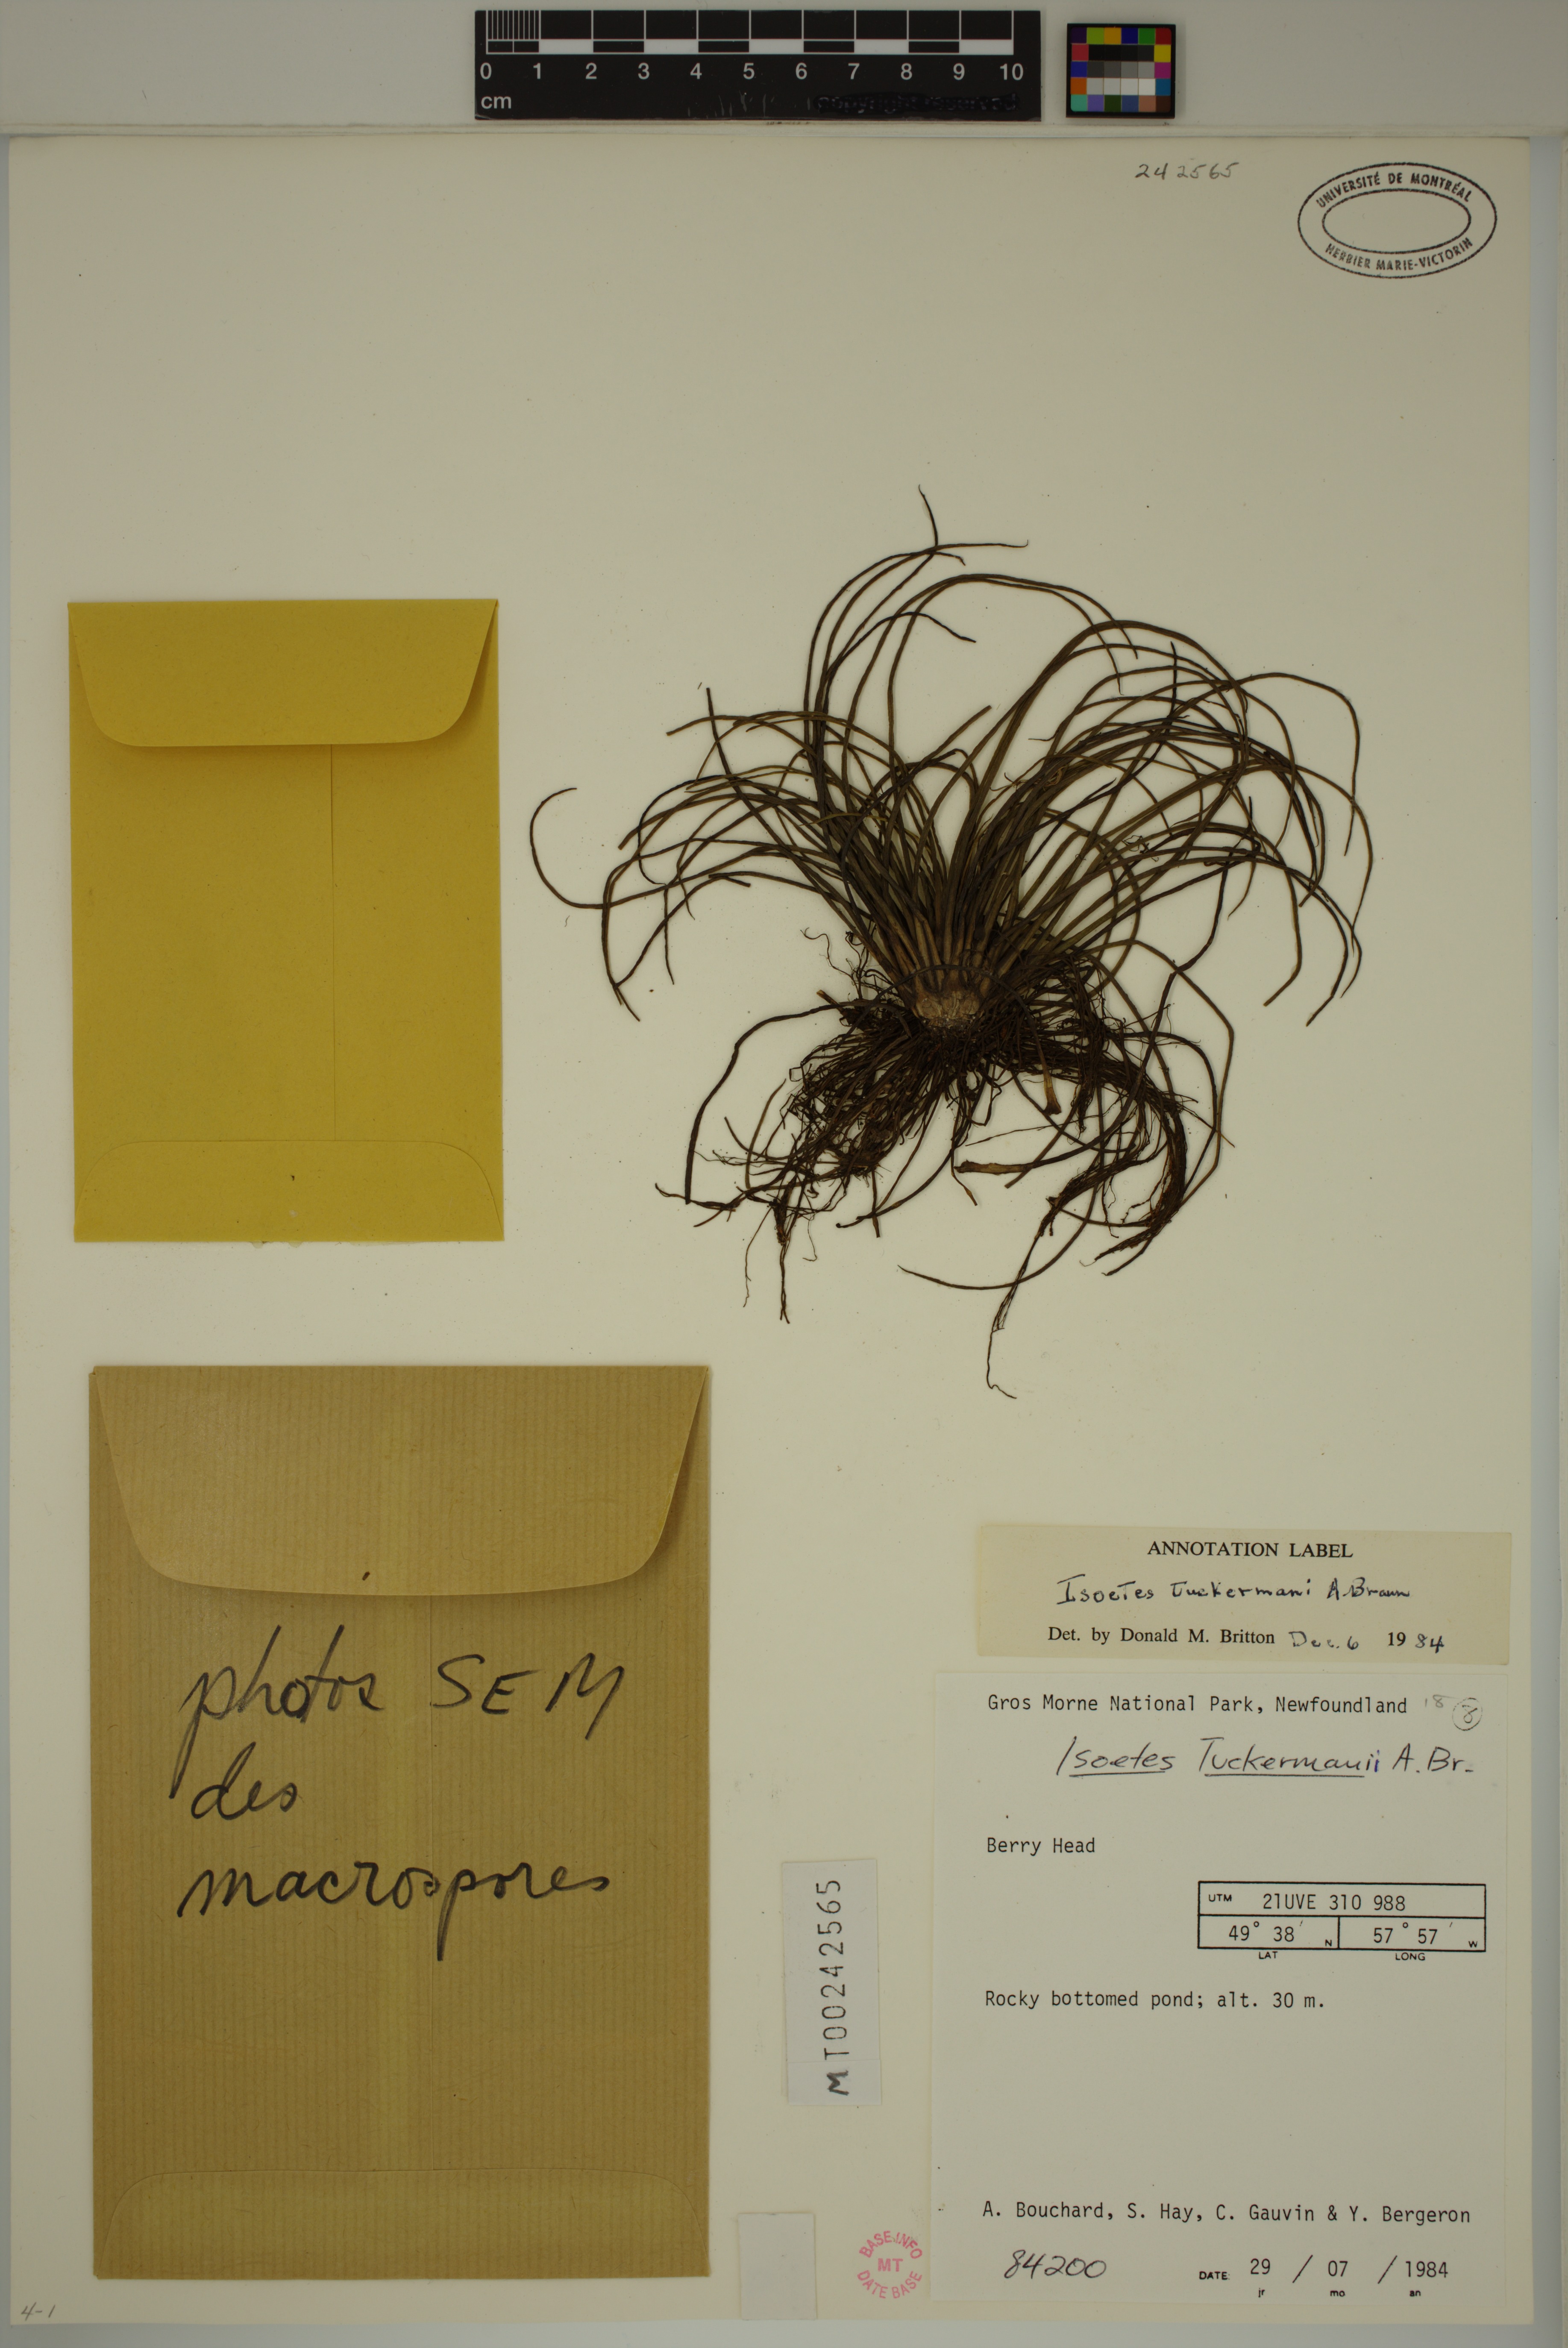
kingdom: Plantae
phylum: Tracheophyta
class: Lycopodiopsida
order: Isoetales
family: Isoetaceae
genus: Isoetes
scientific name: Isoetes harveyi
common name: Harvey's quillwort
